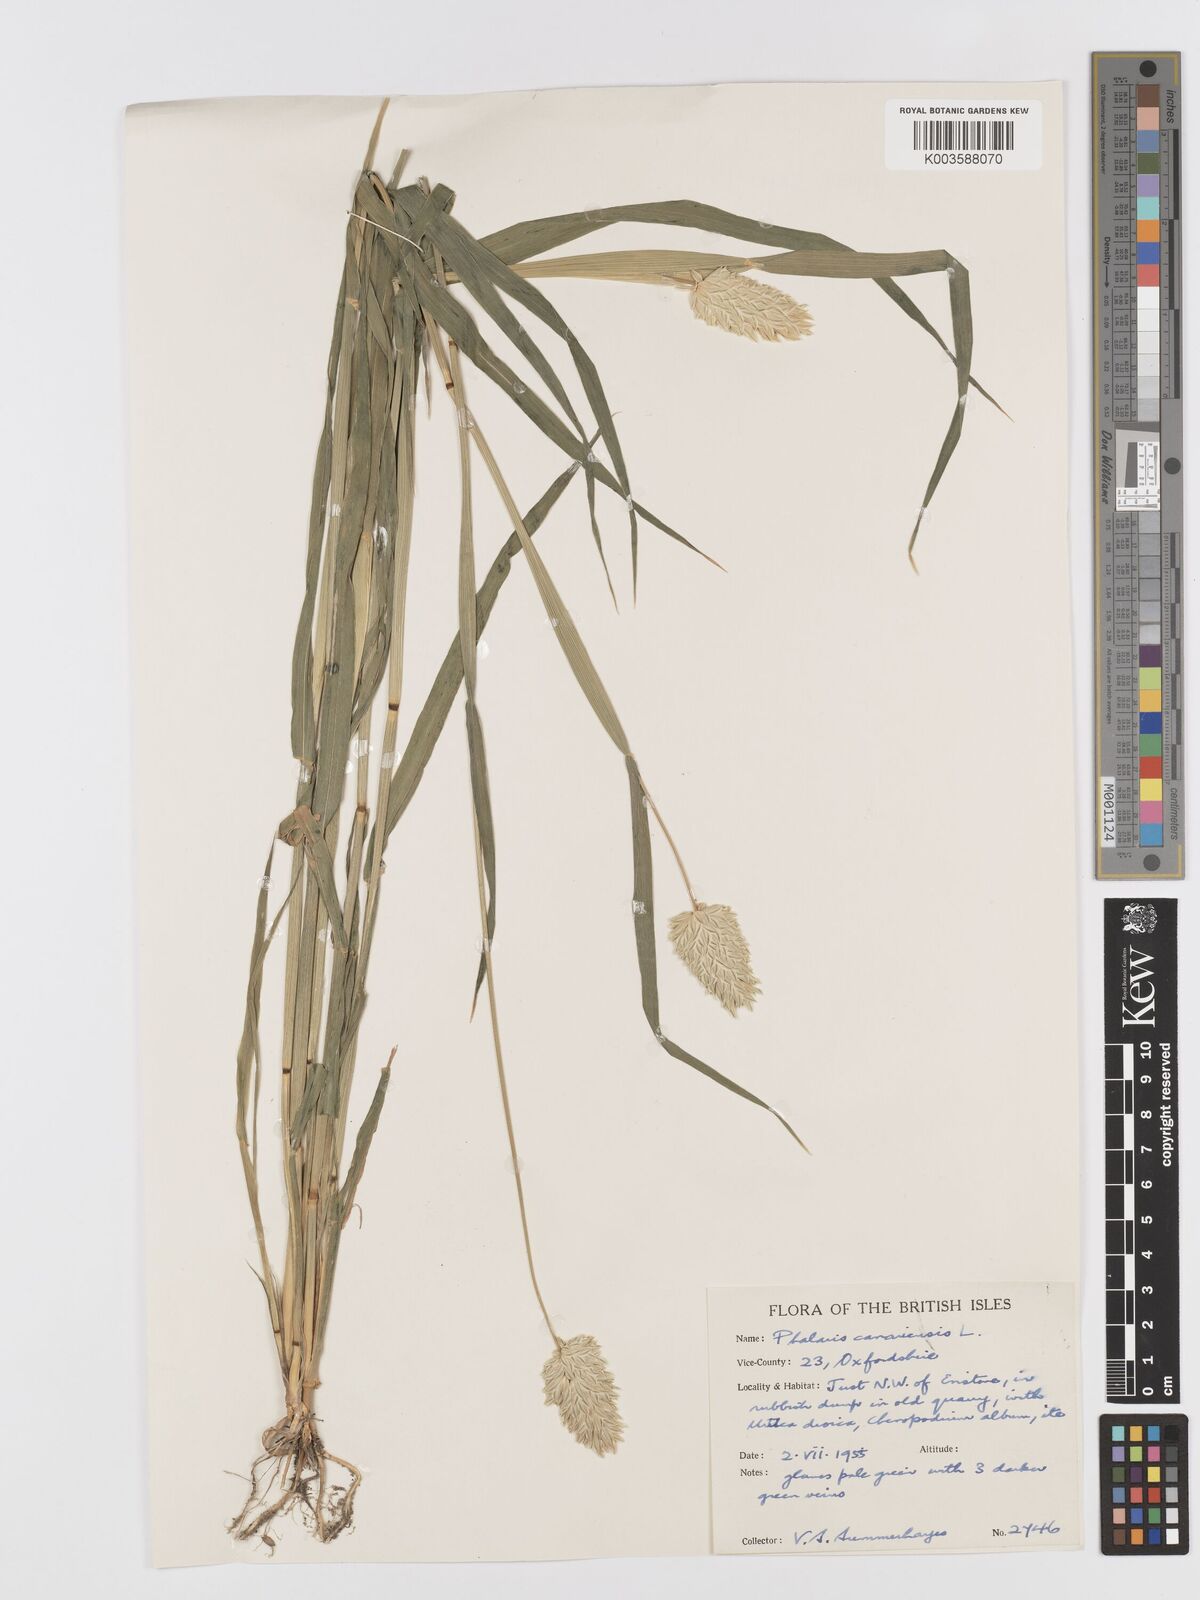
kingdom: Plantae
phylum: Tracheophyta
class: Liliopsida
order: Poales
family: Poaceae
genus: Phalaris
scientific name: Phalaris canariensis
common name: Annual canarygrass
